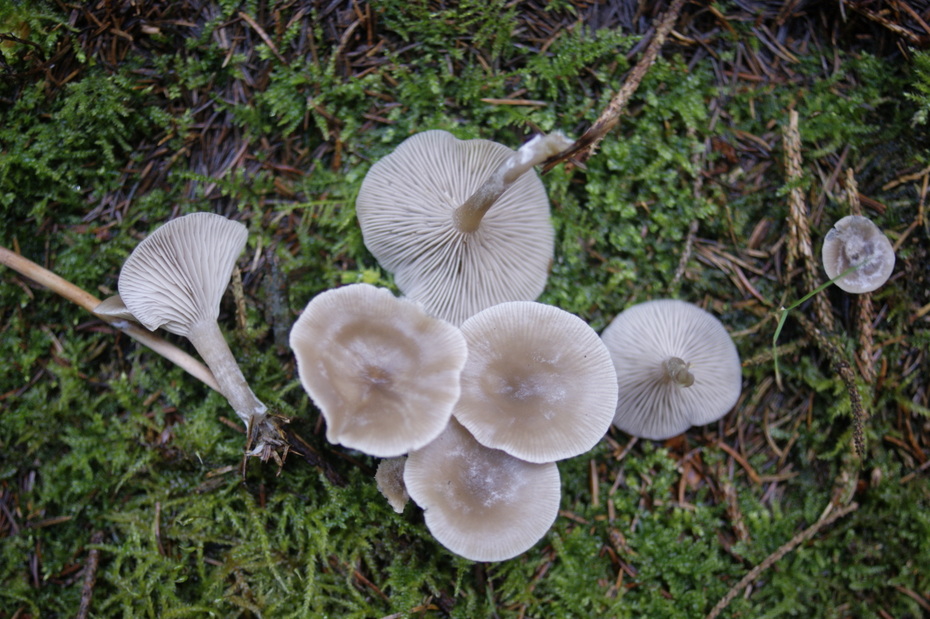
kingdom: Fungi
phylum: Basidiomycota
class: Agaricomycetes
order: Agaricales
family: Tricholomataceae
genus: Clitocybe
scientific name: Clitocybe vibecina
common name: randstribet tragthat
